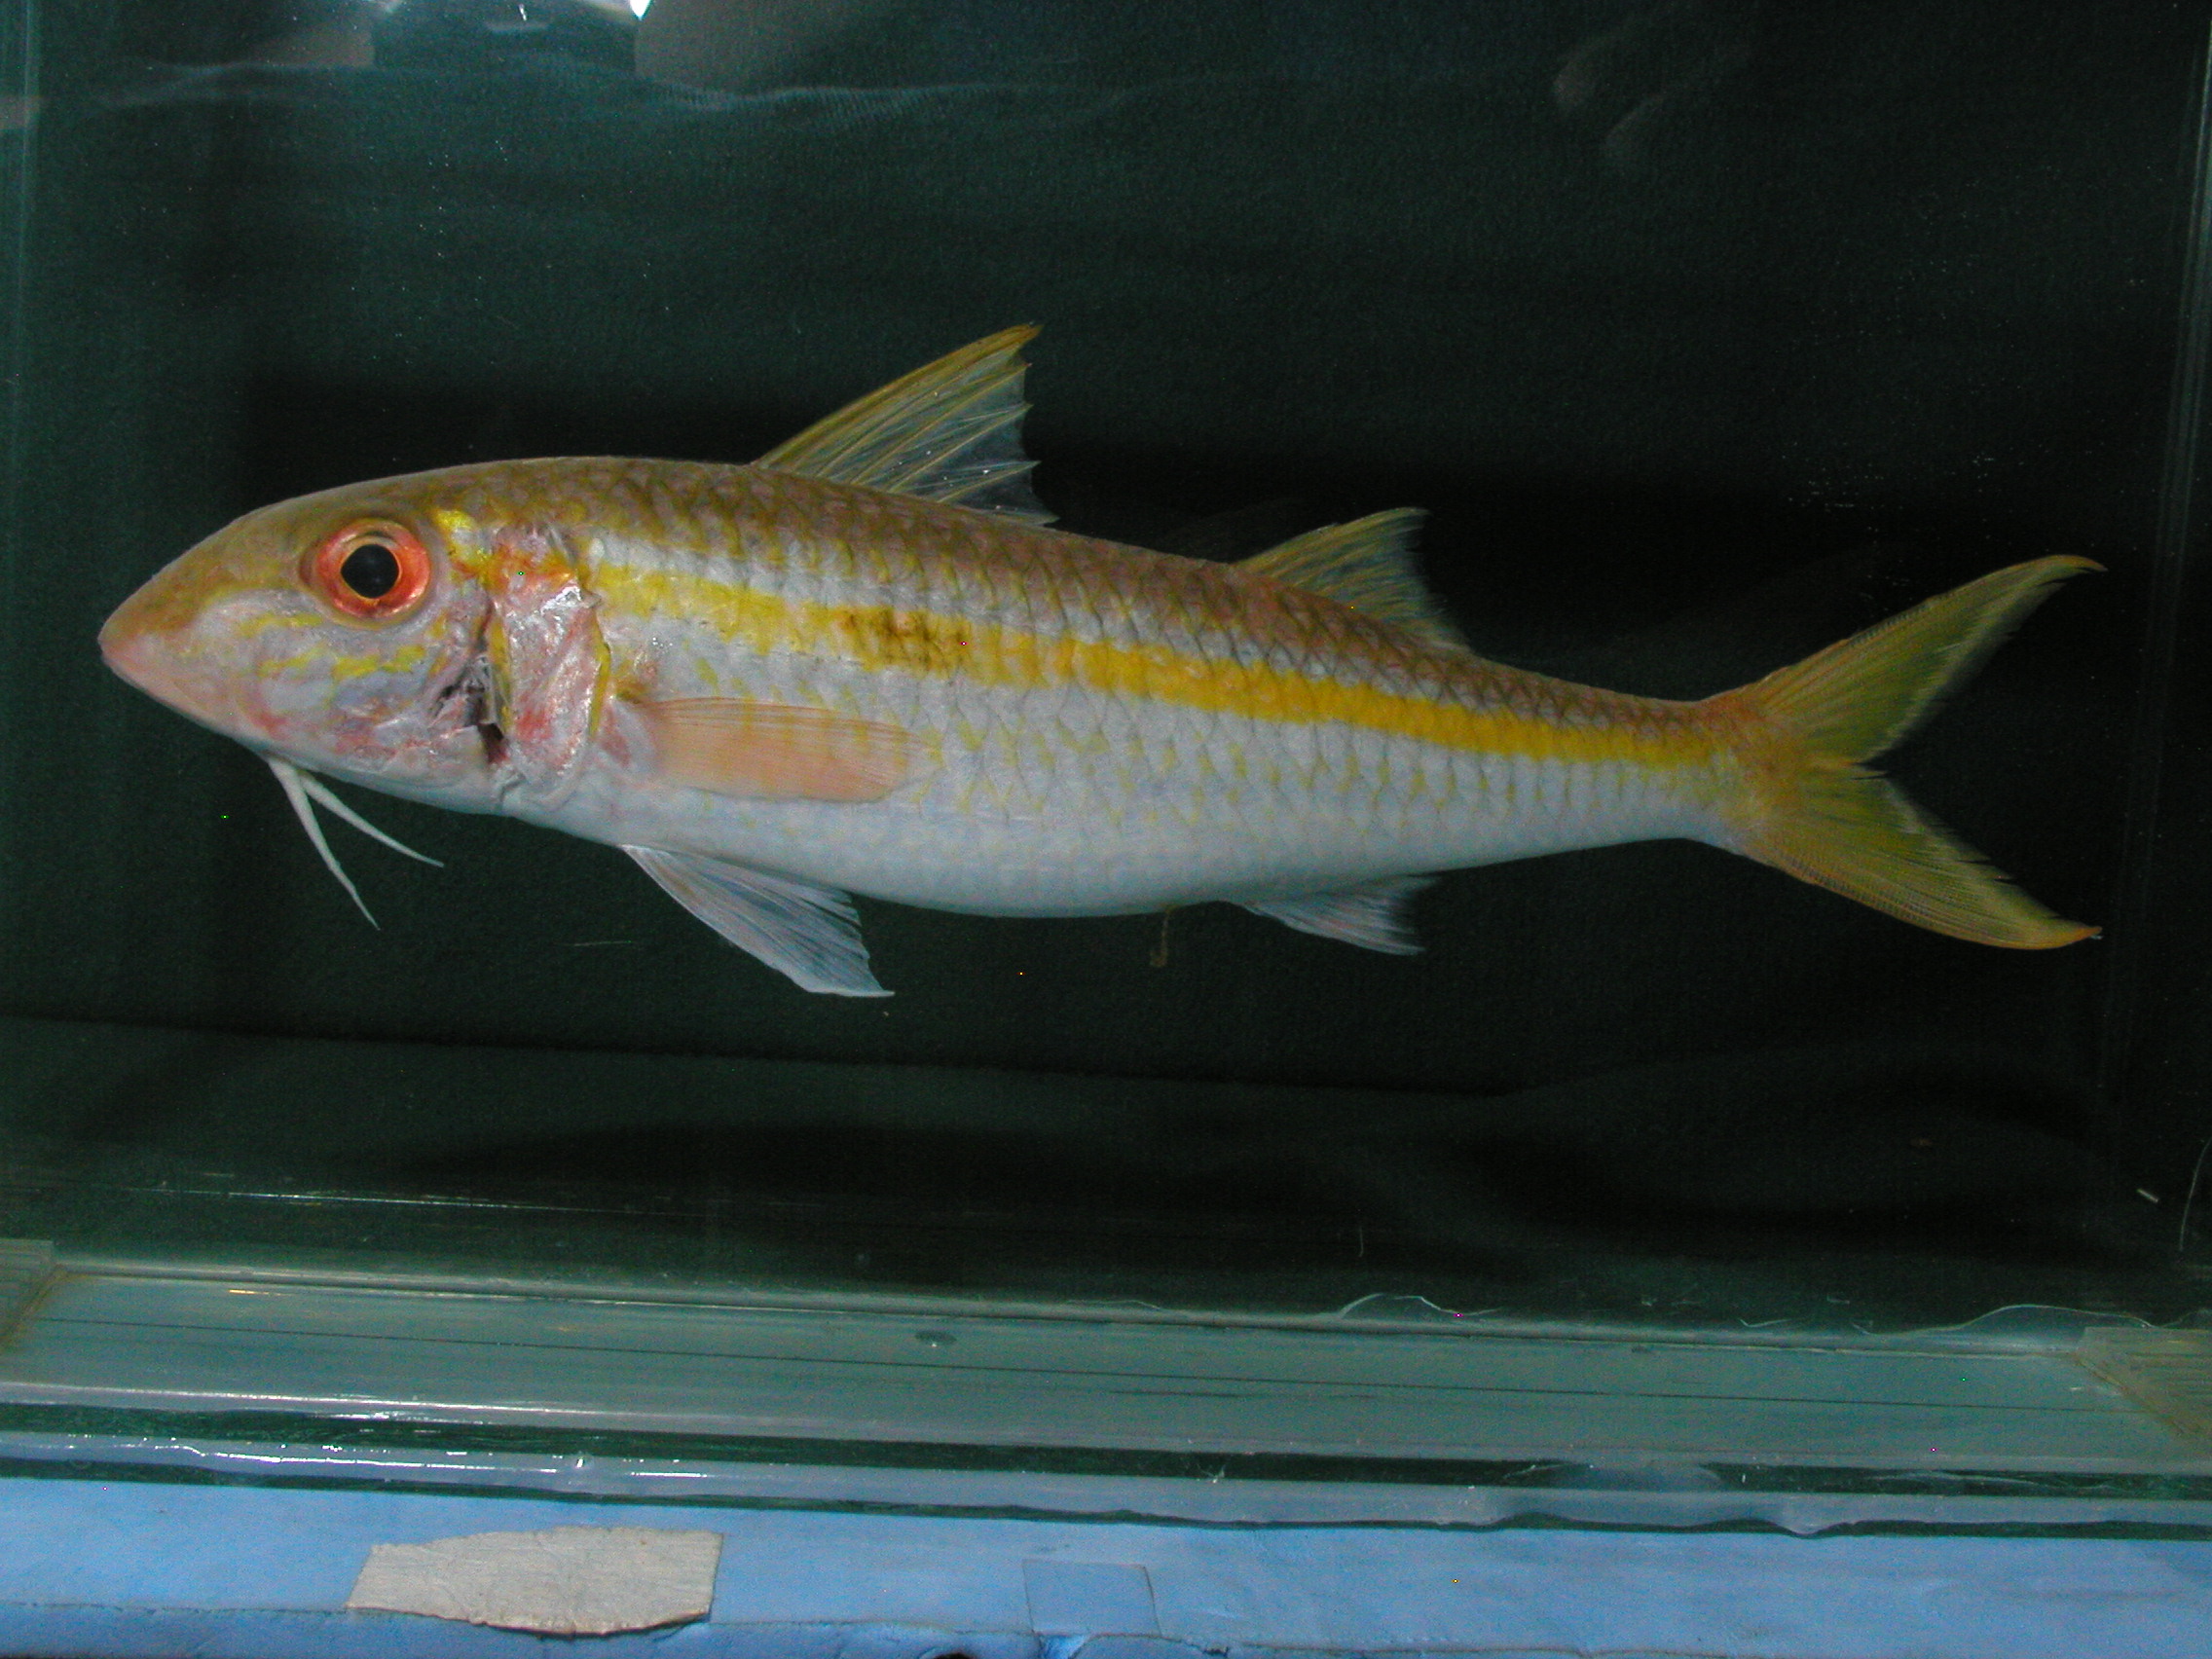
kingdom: Animalia
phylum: Chordata
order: Perciformes
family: Mullidae
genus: Mulloidichthys
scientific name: Mulloidichthys flavolineatus
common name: Yellowstripe goatfish
